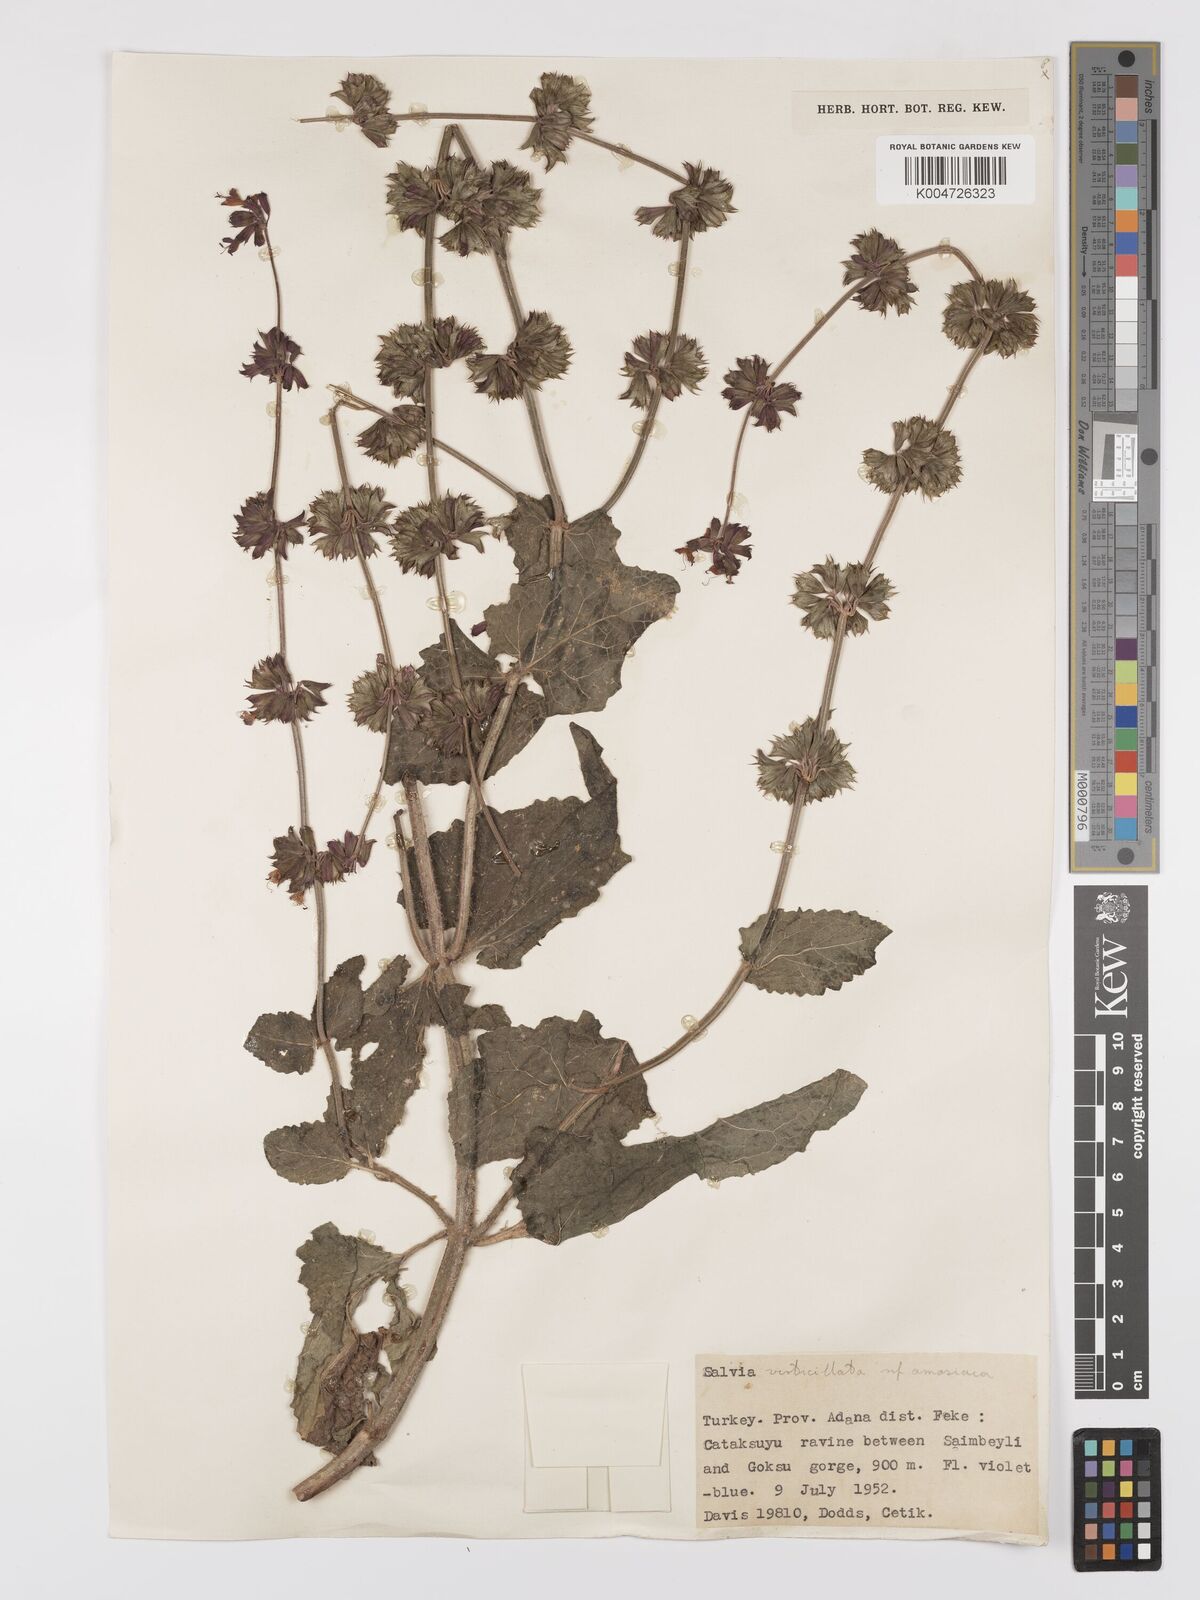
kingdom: Plantae
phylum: Tracheophyta
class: Magnoliopsida
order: Lamiales
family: Lamiaceae
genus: Salvia
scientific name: Salvia verticillata
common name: Whorled clary
